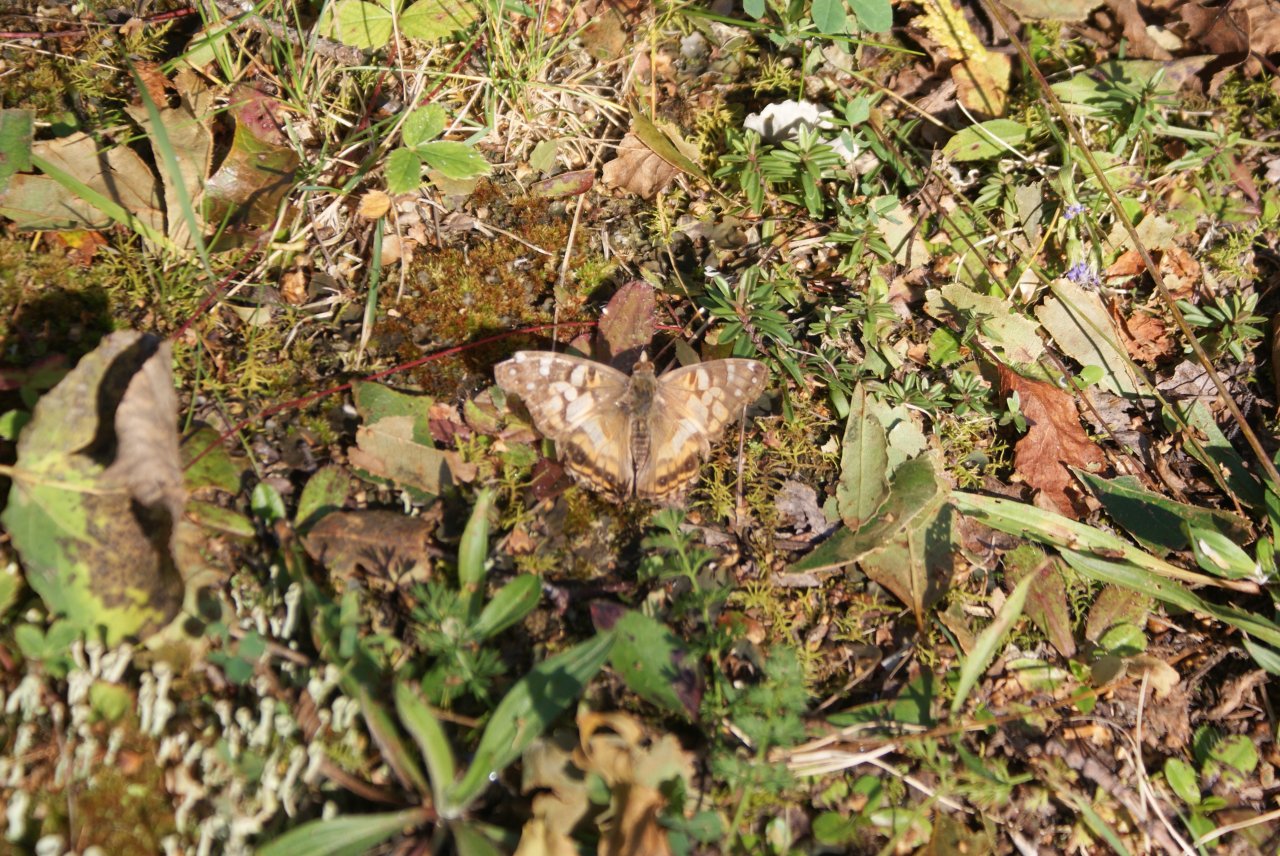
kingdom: Animalia
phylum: Arthropoda
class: Insecta
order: Lepidoptera
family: Nymphalidae
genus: Vanessa
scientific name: Vanessa virginiensis
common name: American Lady
